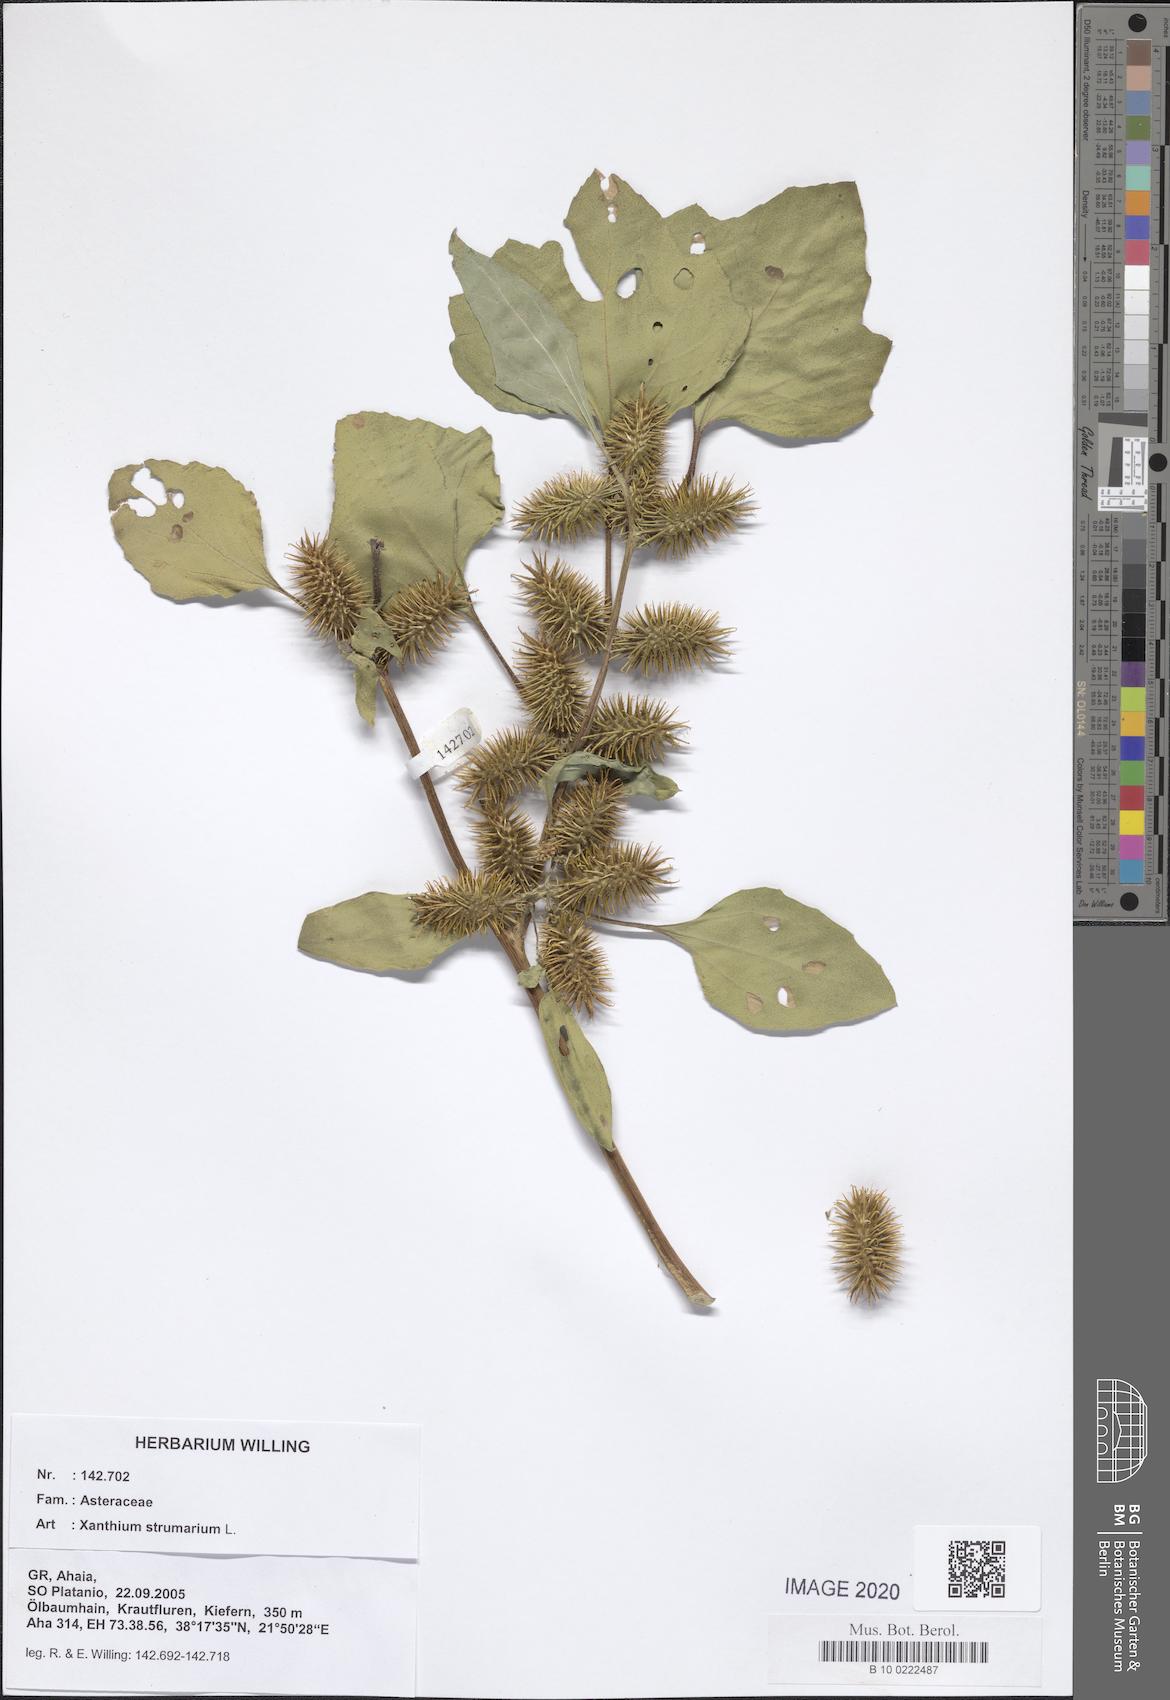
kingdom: Plantae
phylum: Tracheophyta
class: Magnoliopsida
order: Asterales
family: Asteraceae
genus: Xanthium
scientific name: Xanthium strumarium
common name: Rough cocklebur
